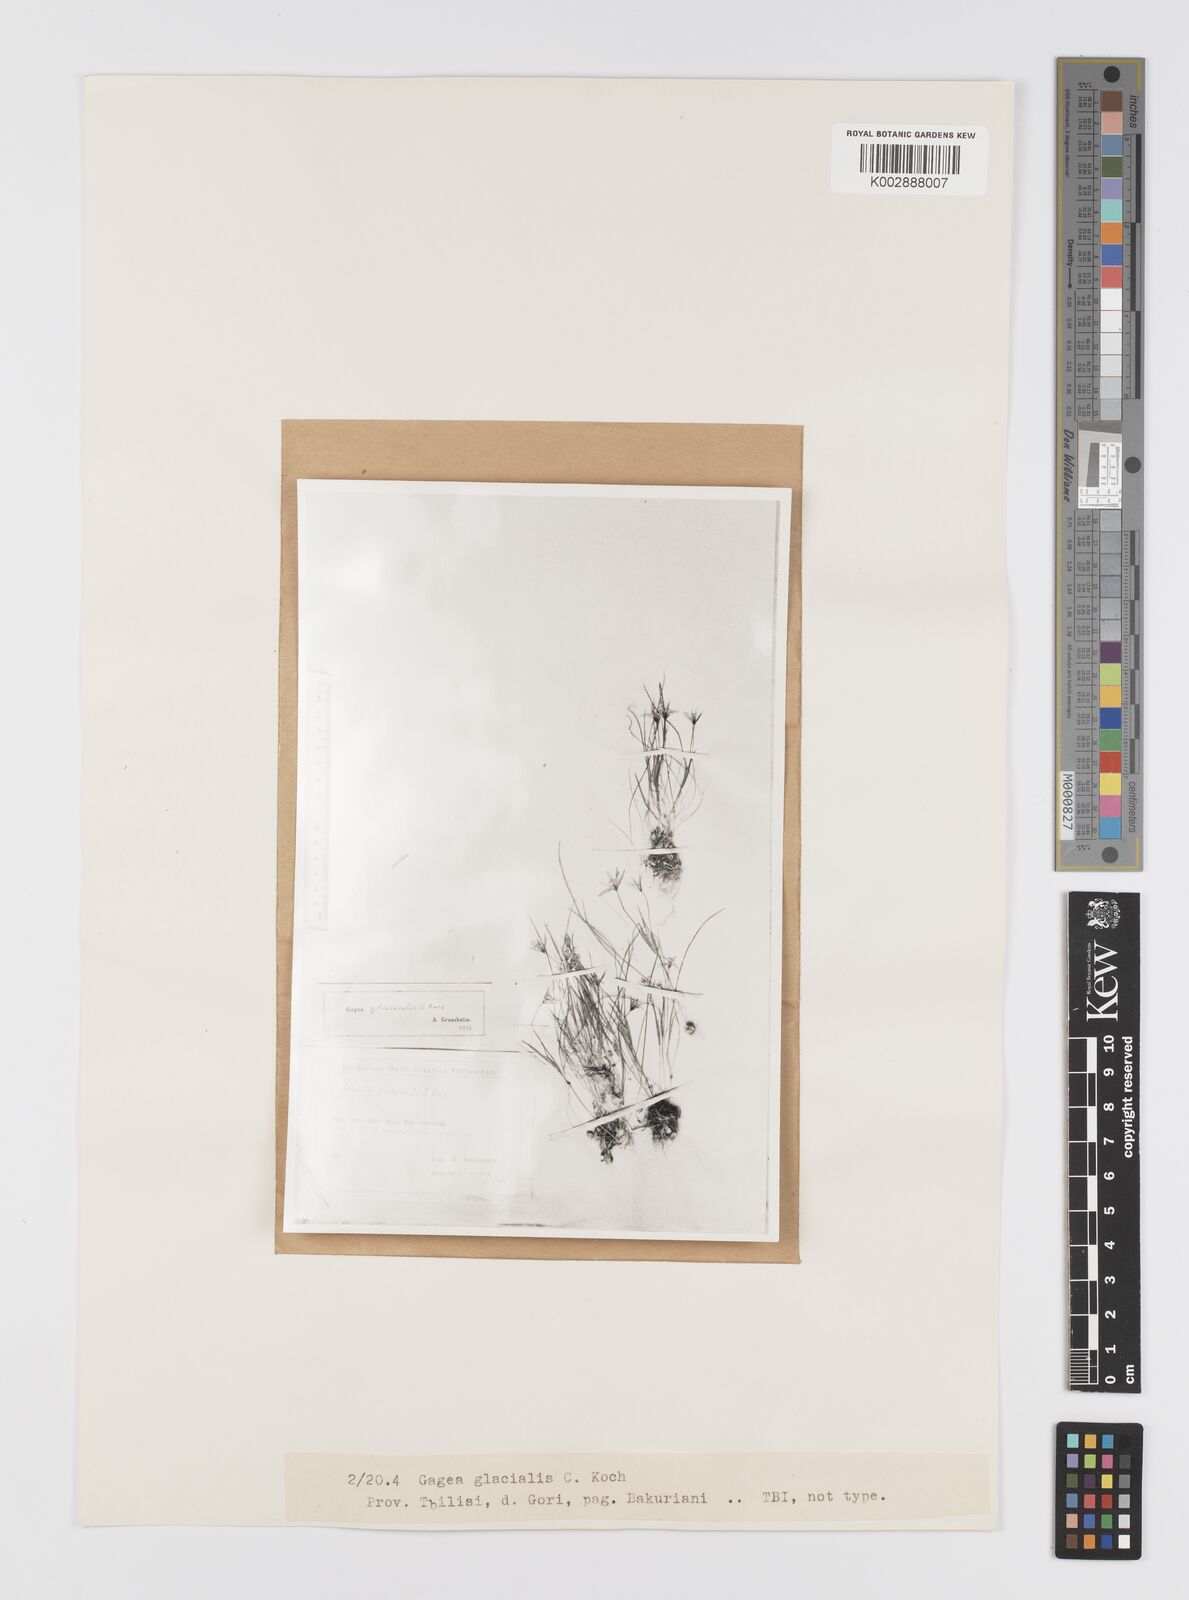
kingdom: Plantae
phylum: Tracheophyta
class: Liliopsida
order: Liliales
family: Liliaceae
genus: Gagea
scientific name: Gagea glacialis
